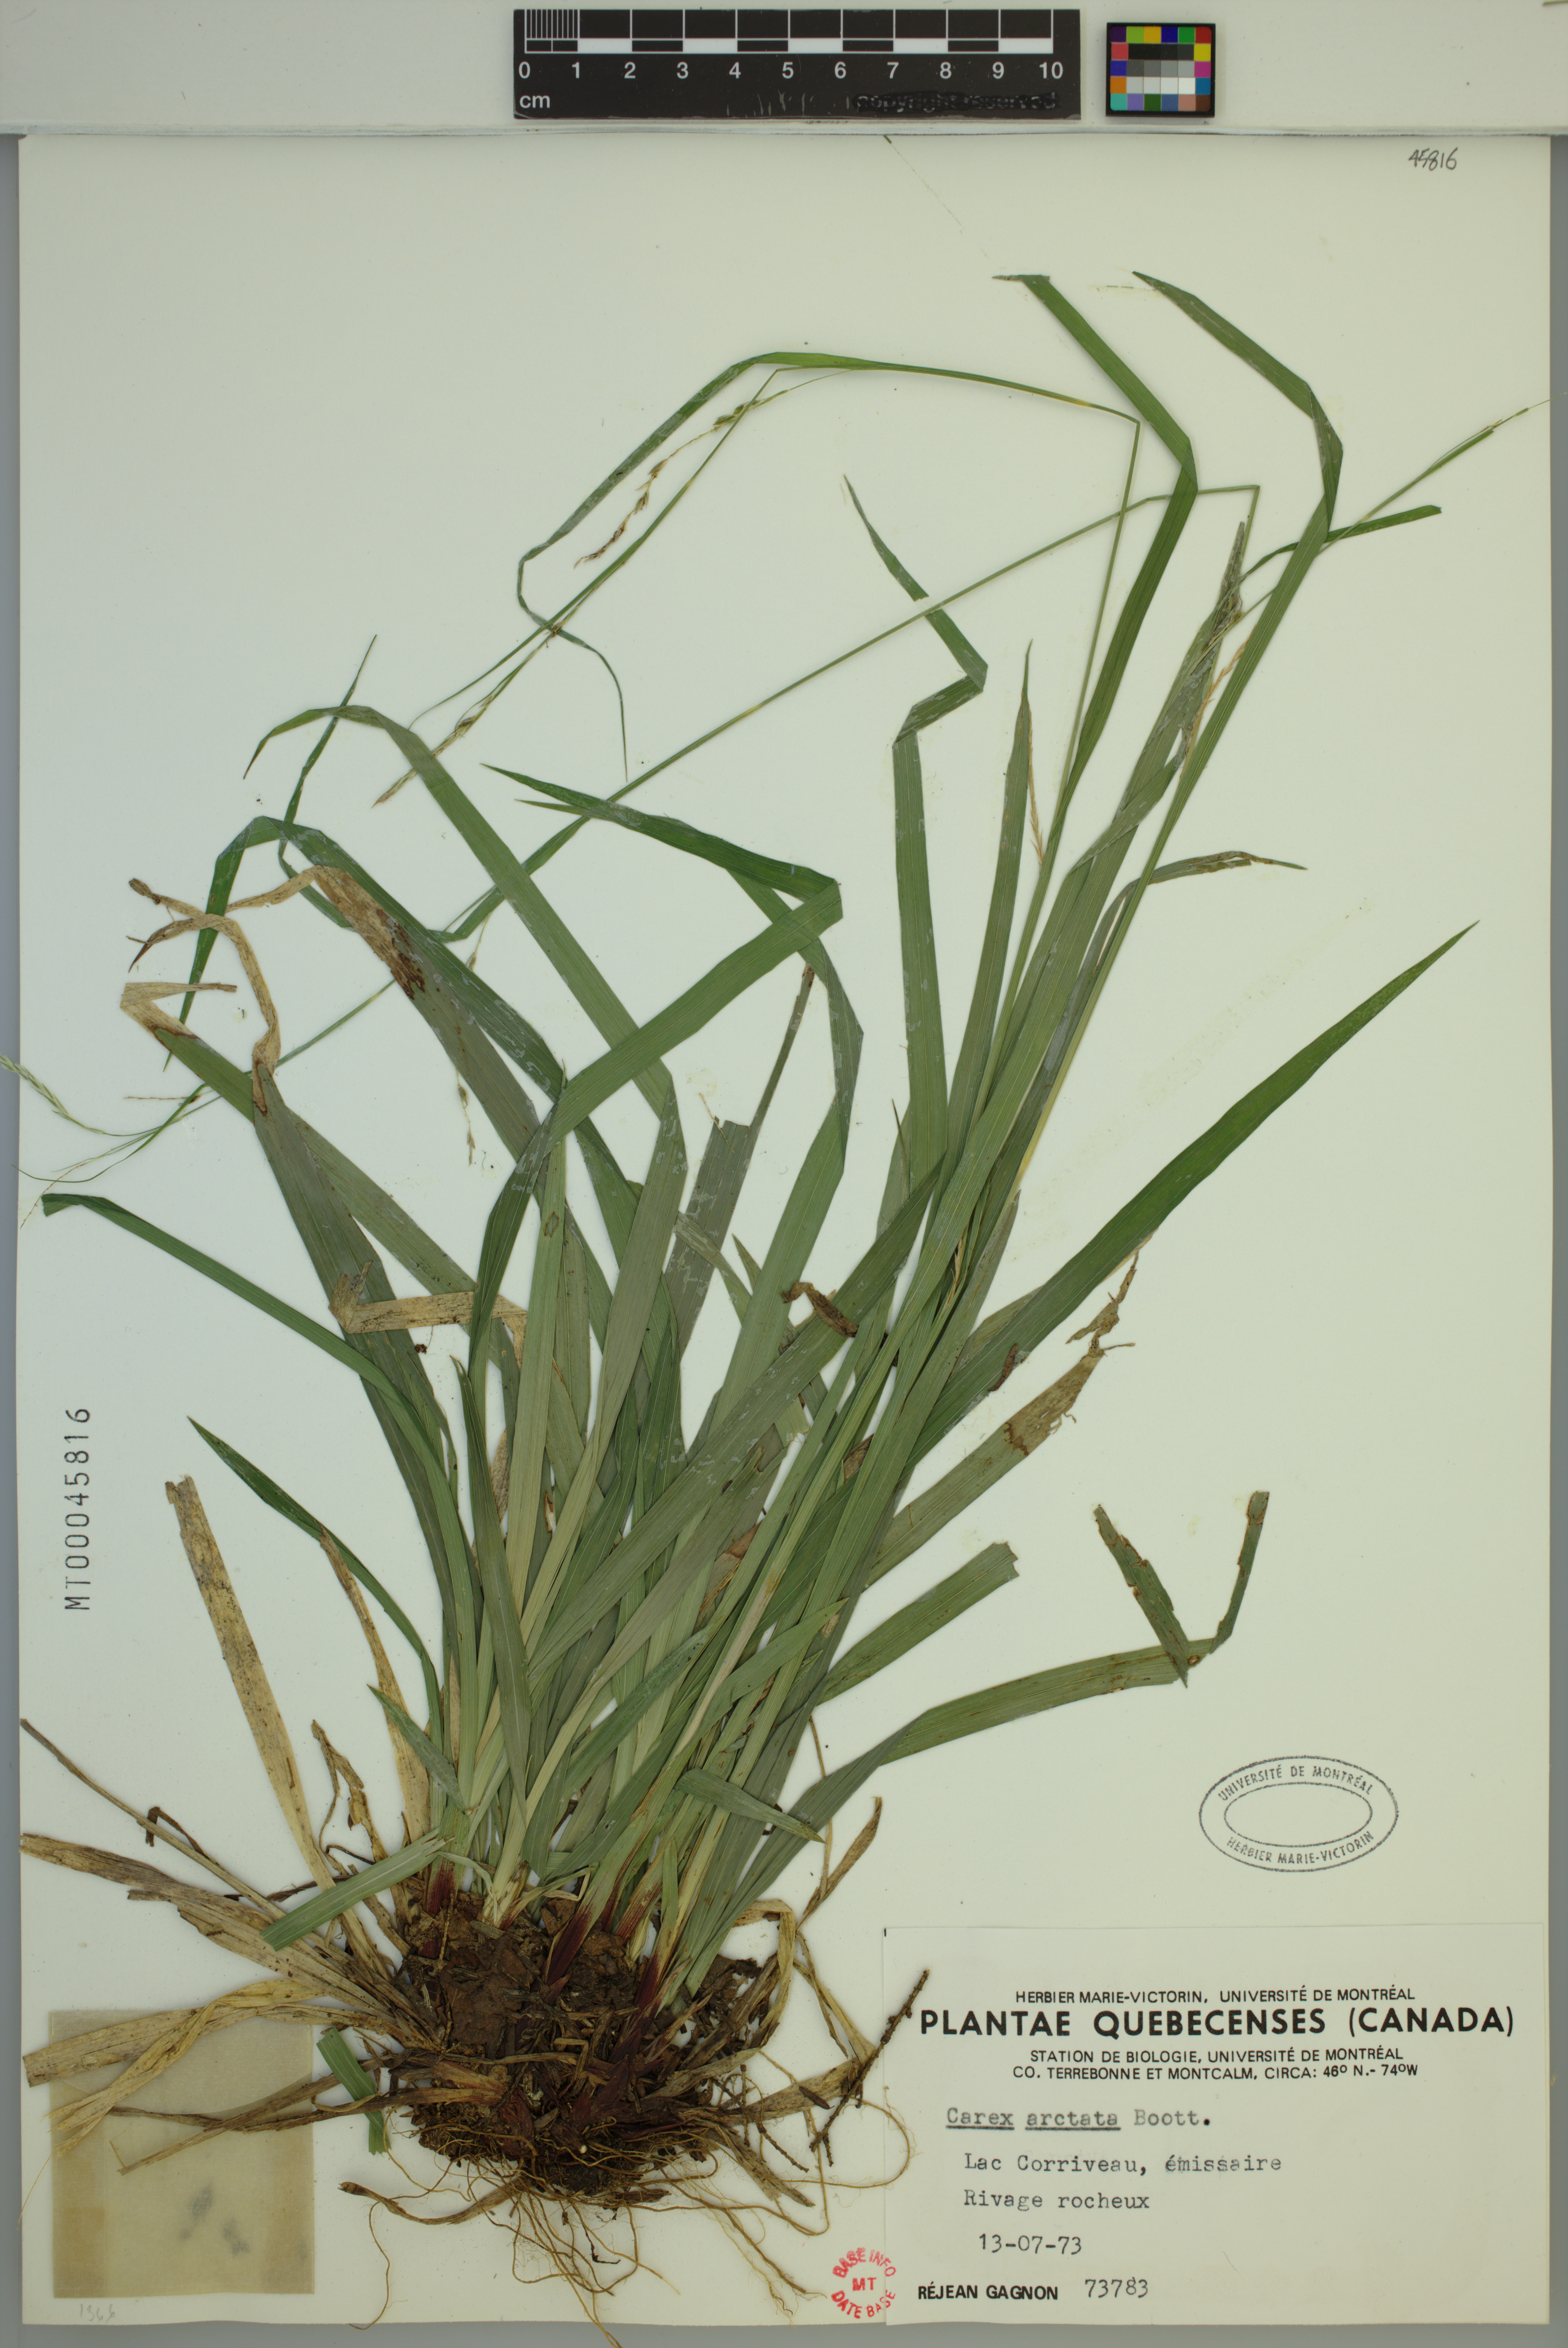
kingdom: Plantae
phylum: Tracheophyta
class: Liliopsida
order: Poales
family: Cyperaceae
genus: Carex
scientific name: Carex arctata
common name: Black sedge
